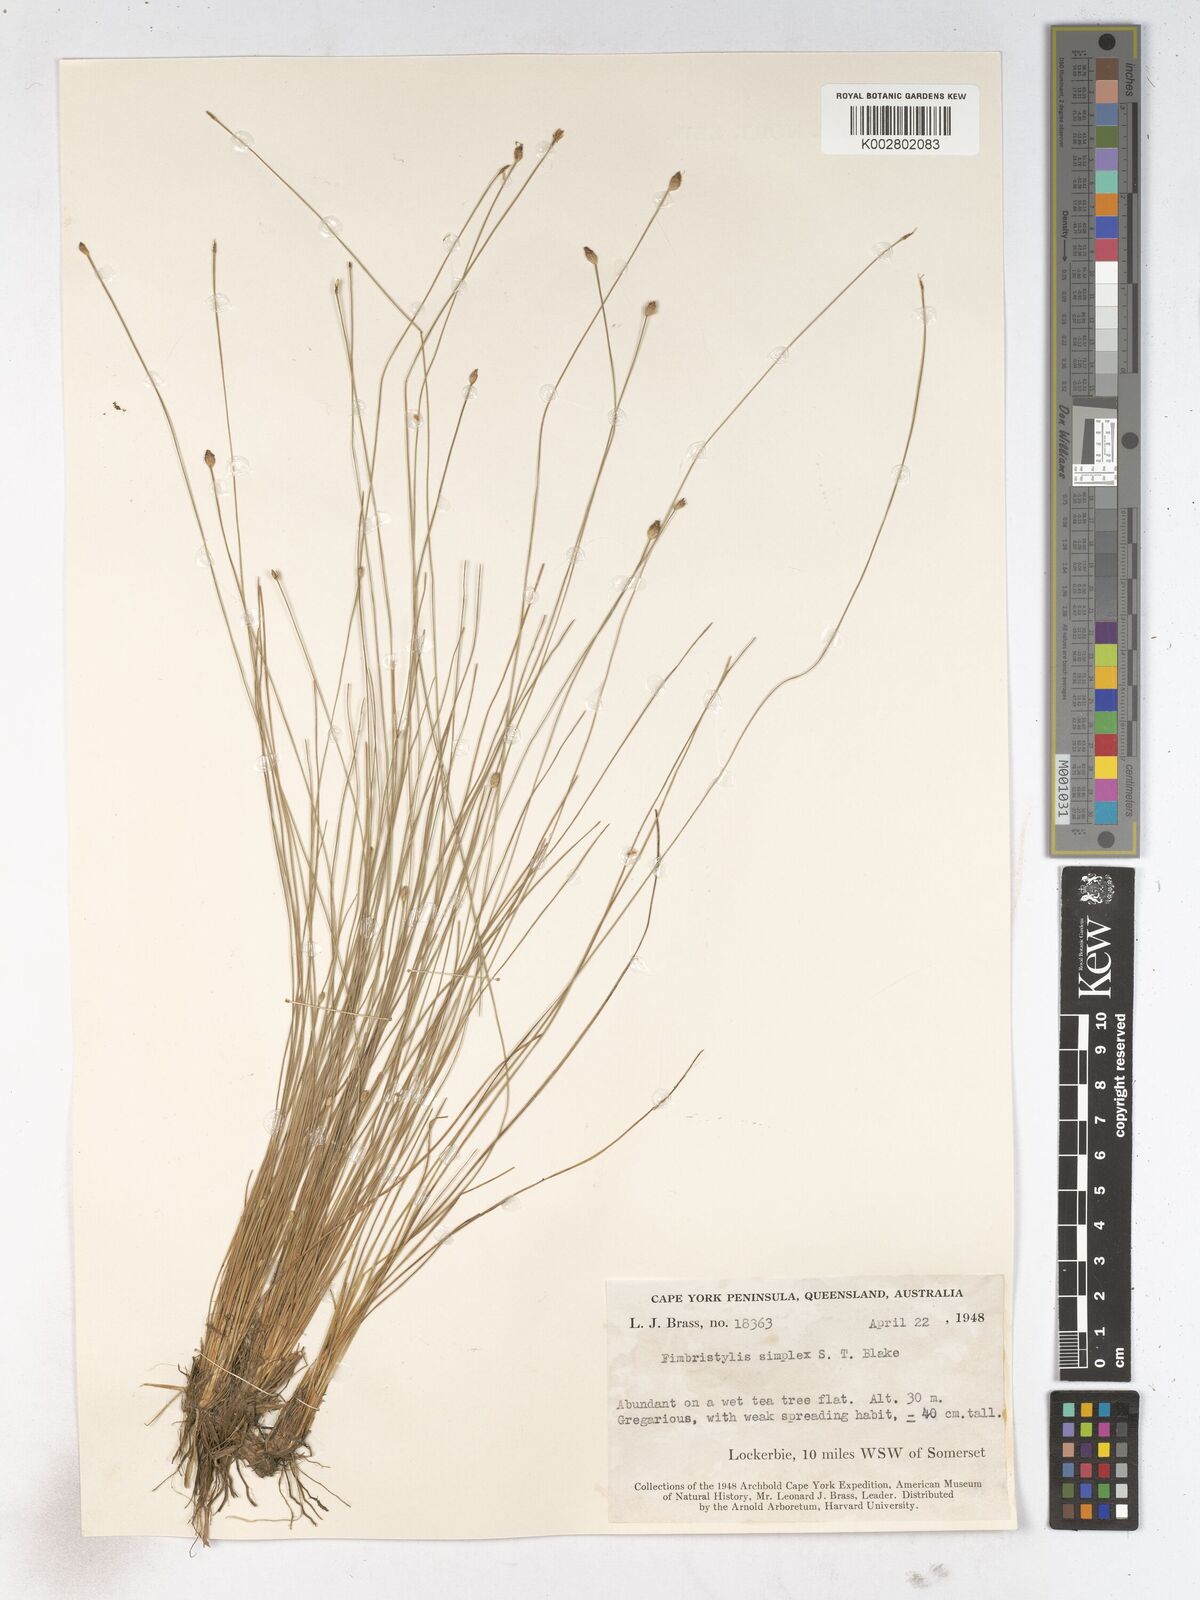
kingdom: Plantae
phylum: Tracheophyta
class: Liliopsida
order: Poales
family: Cyperaceae
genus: Fimbristylis
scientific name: Fimbristylis simplex
